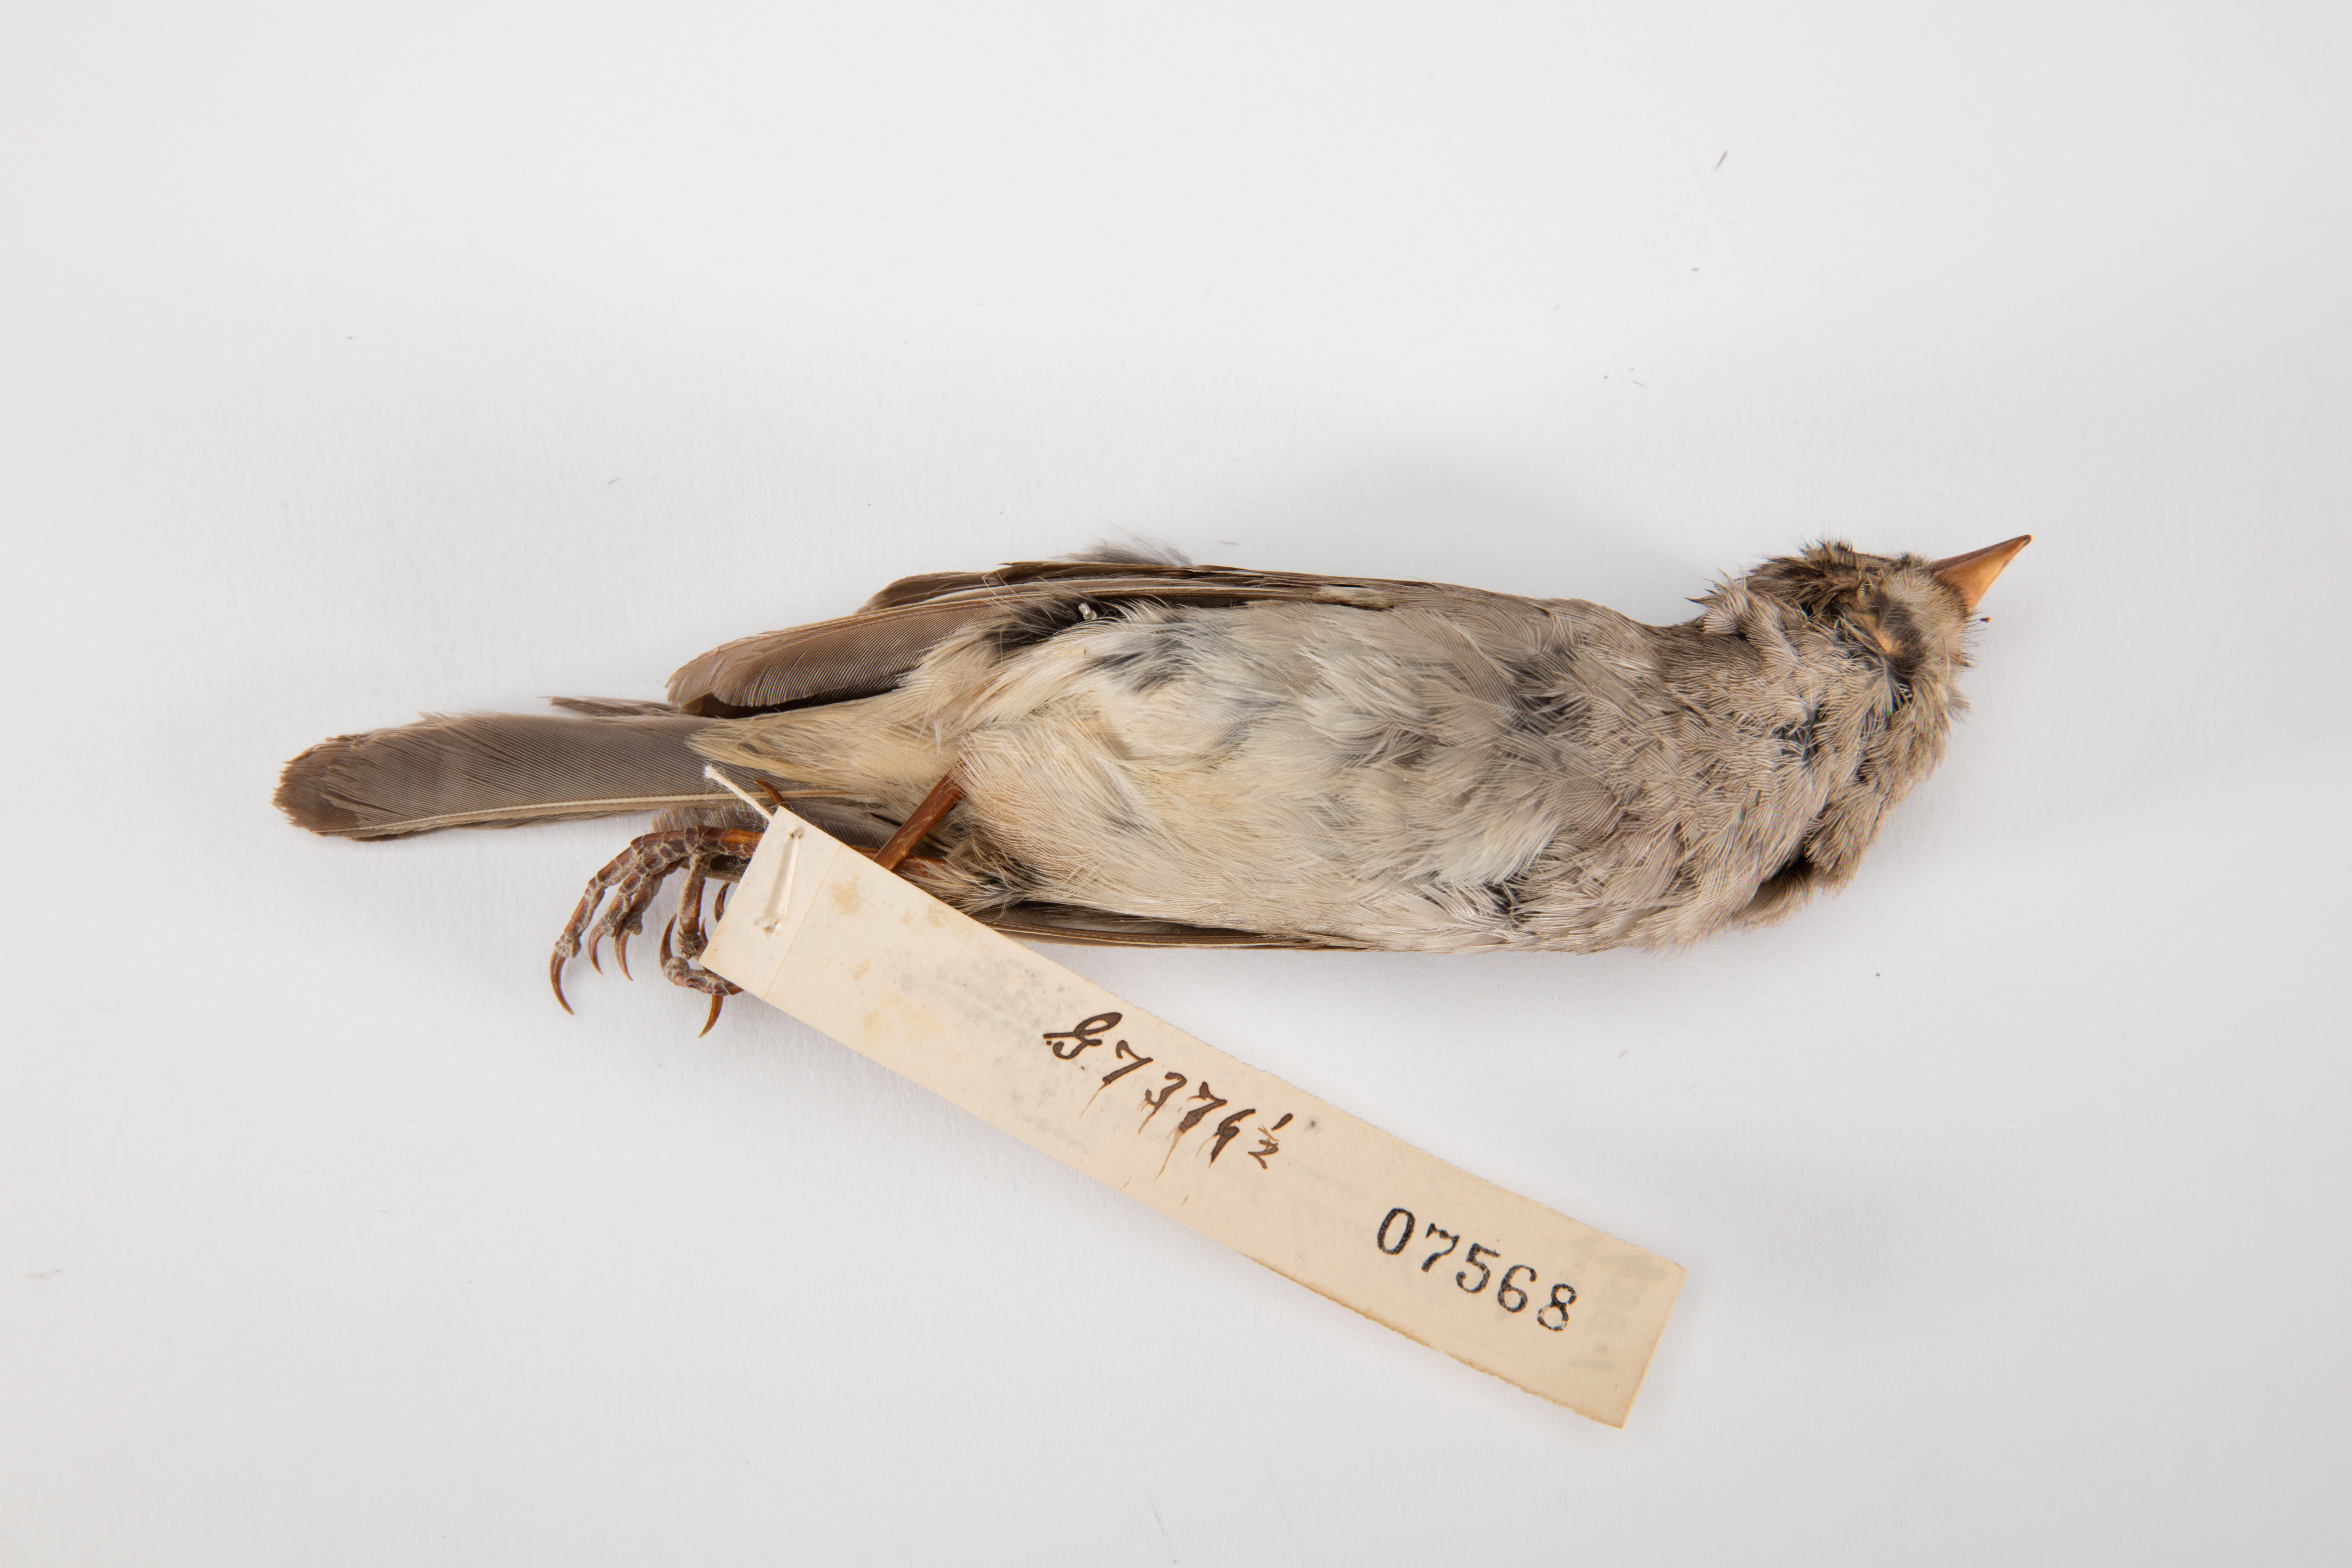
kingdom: Animalia
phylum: Chordata
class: Aves
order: Passeriformes
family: Passerellidae
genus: Zonotrichia
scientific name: Zonotrichia leucophrys
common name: White-crowned sparrow
